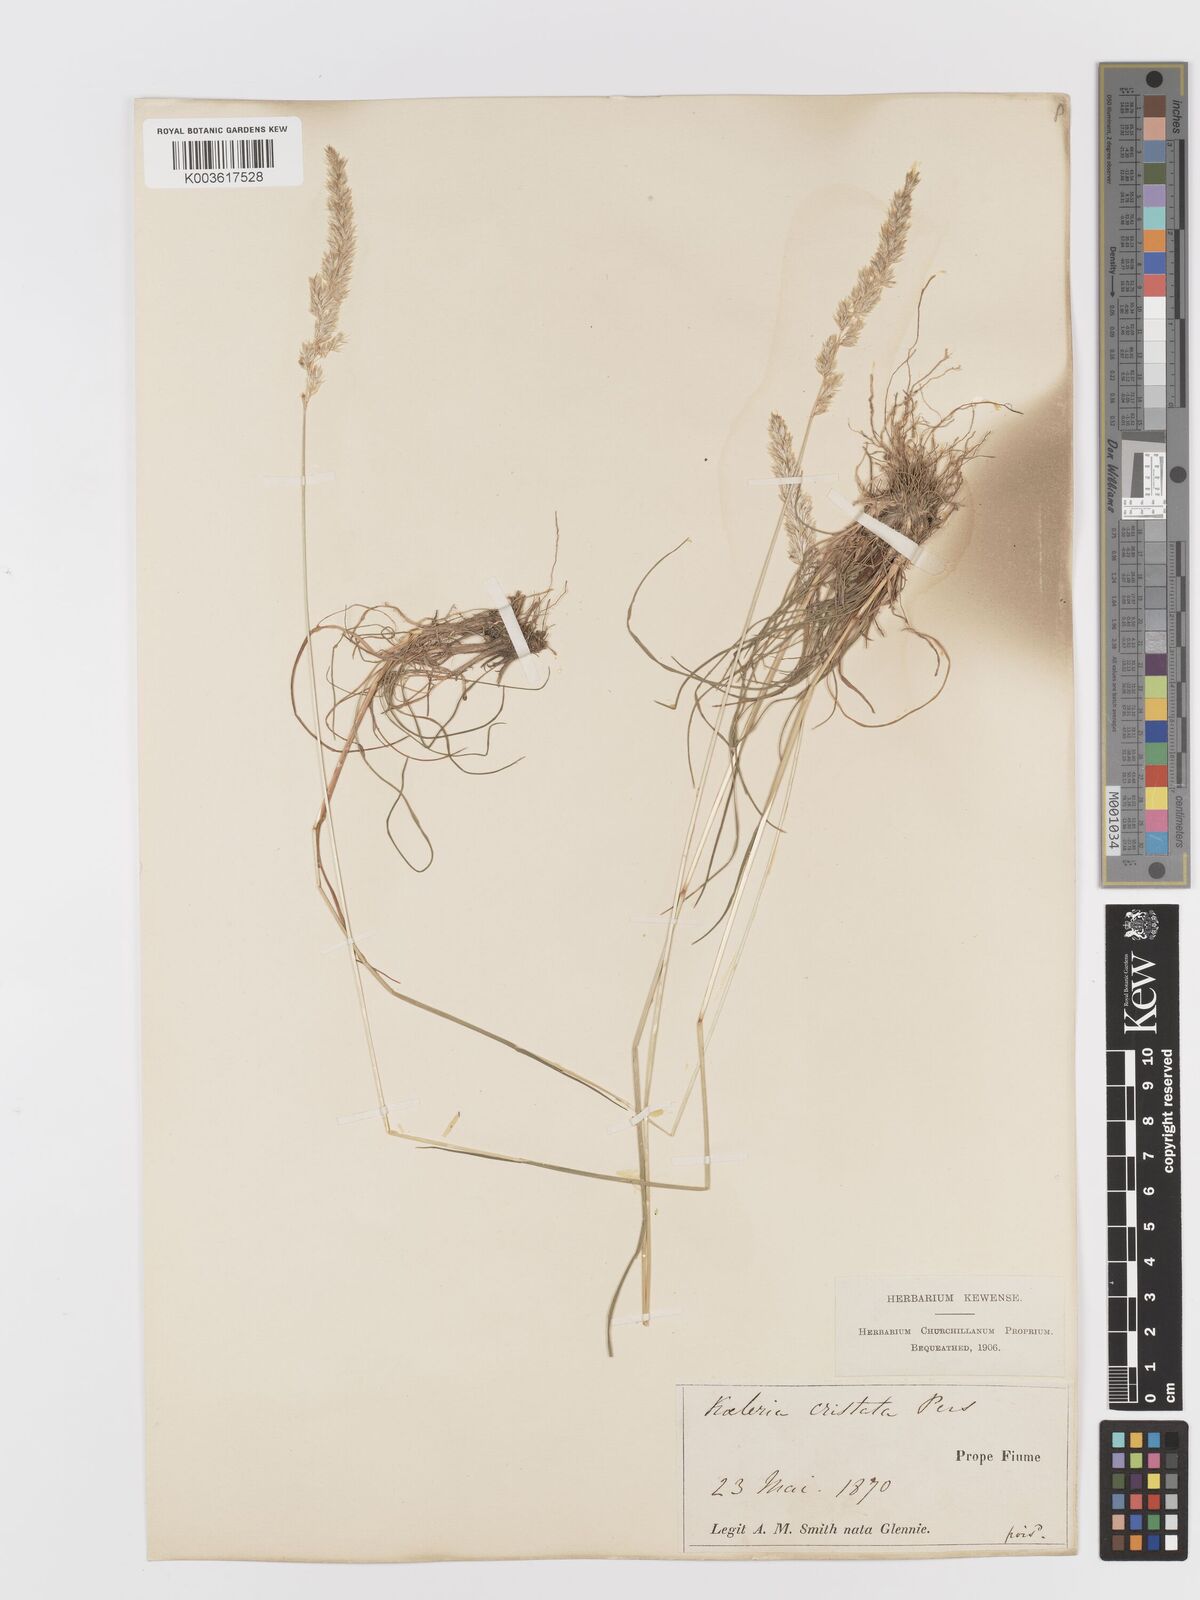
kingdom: Plantae
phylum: Tracheophyta
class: Liliopsida
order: Poales
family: Poaceae
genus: Koeleria
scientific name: Koeleria
